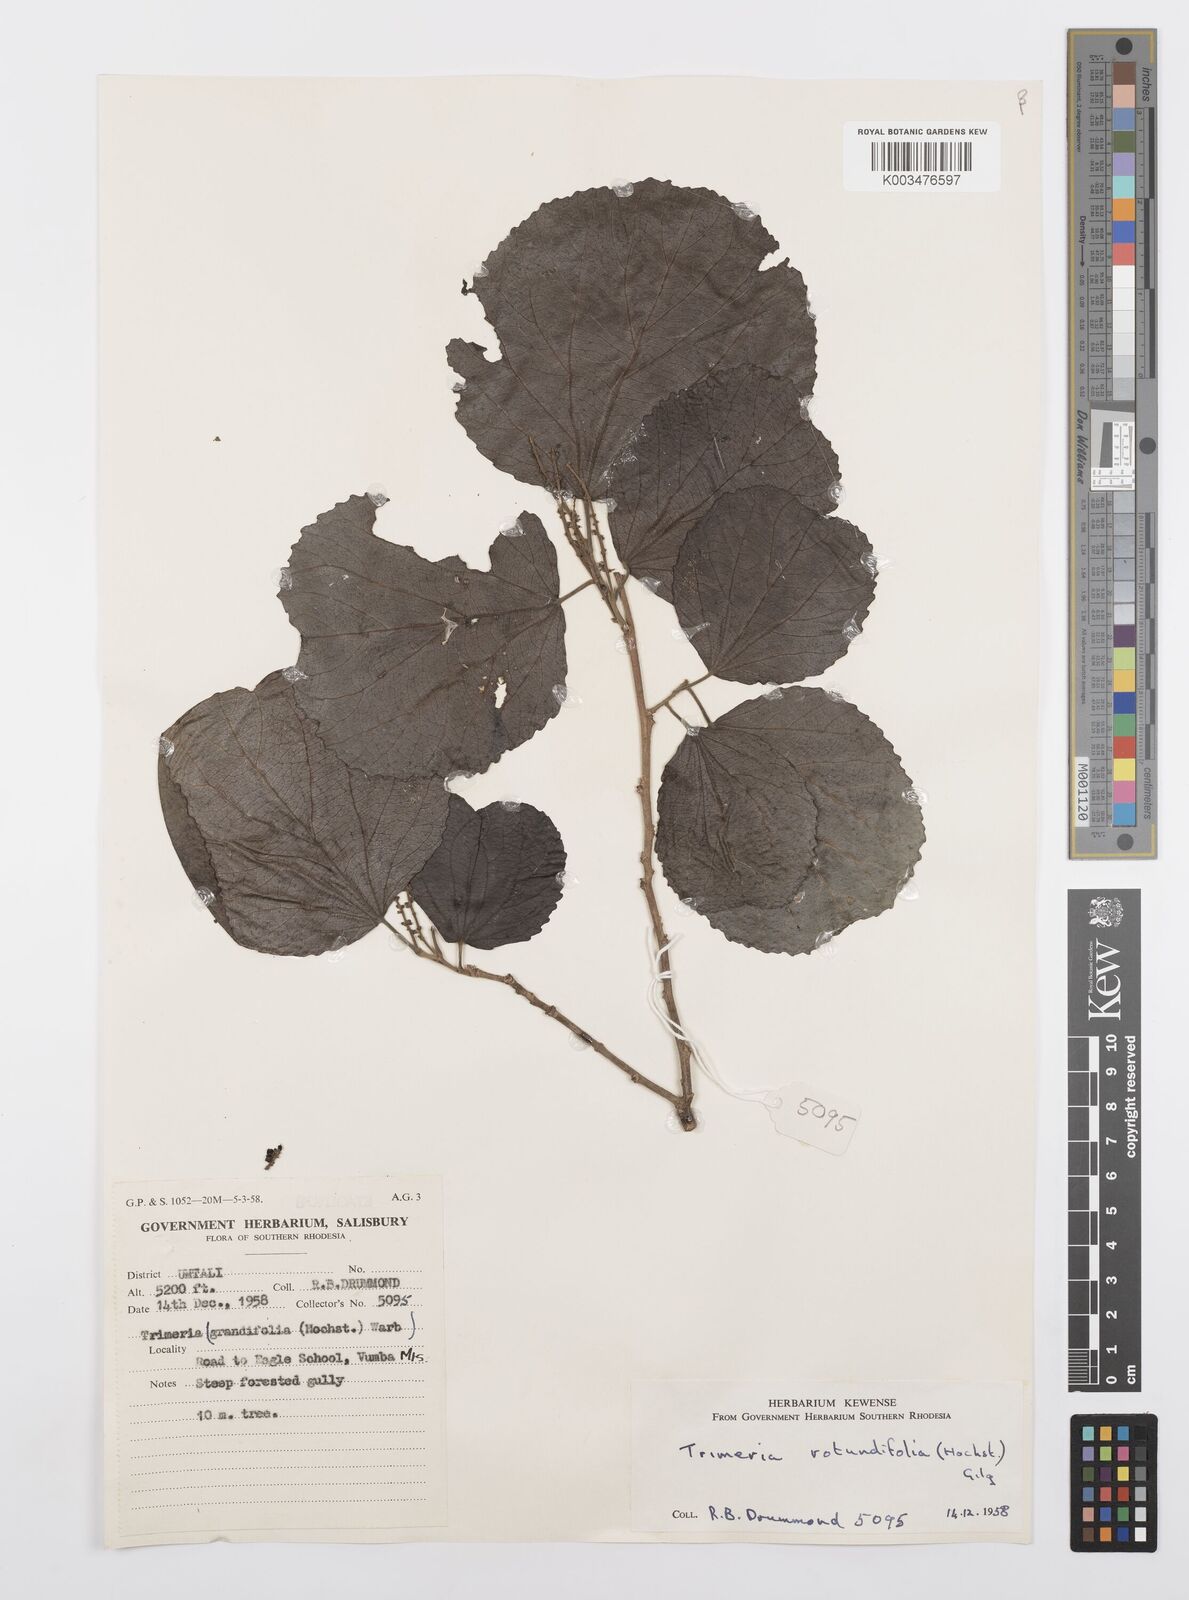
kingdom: Plantae
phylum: Tracheophyta
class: Magnoliopsida
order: Malpighiales
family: Salicaceae
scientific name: Salicaceae
